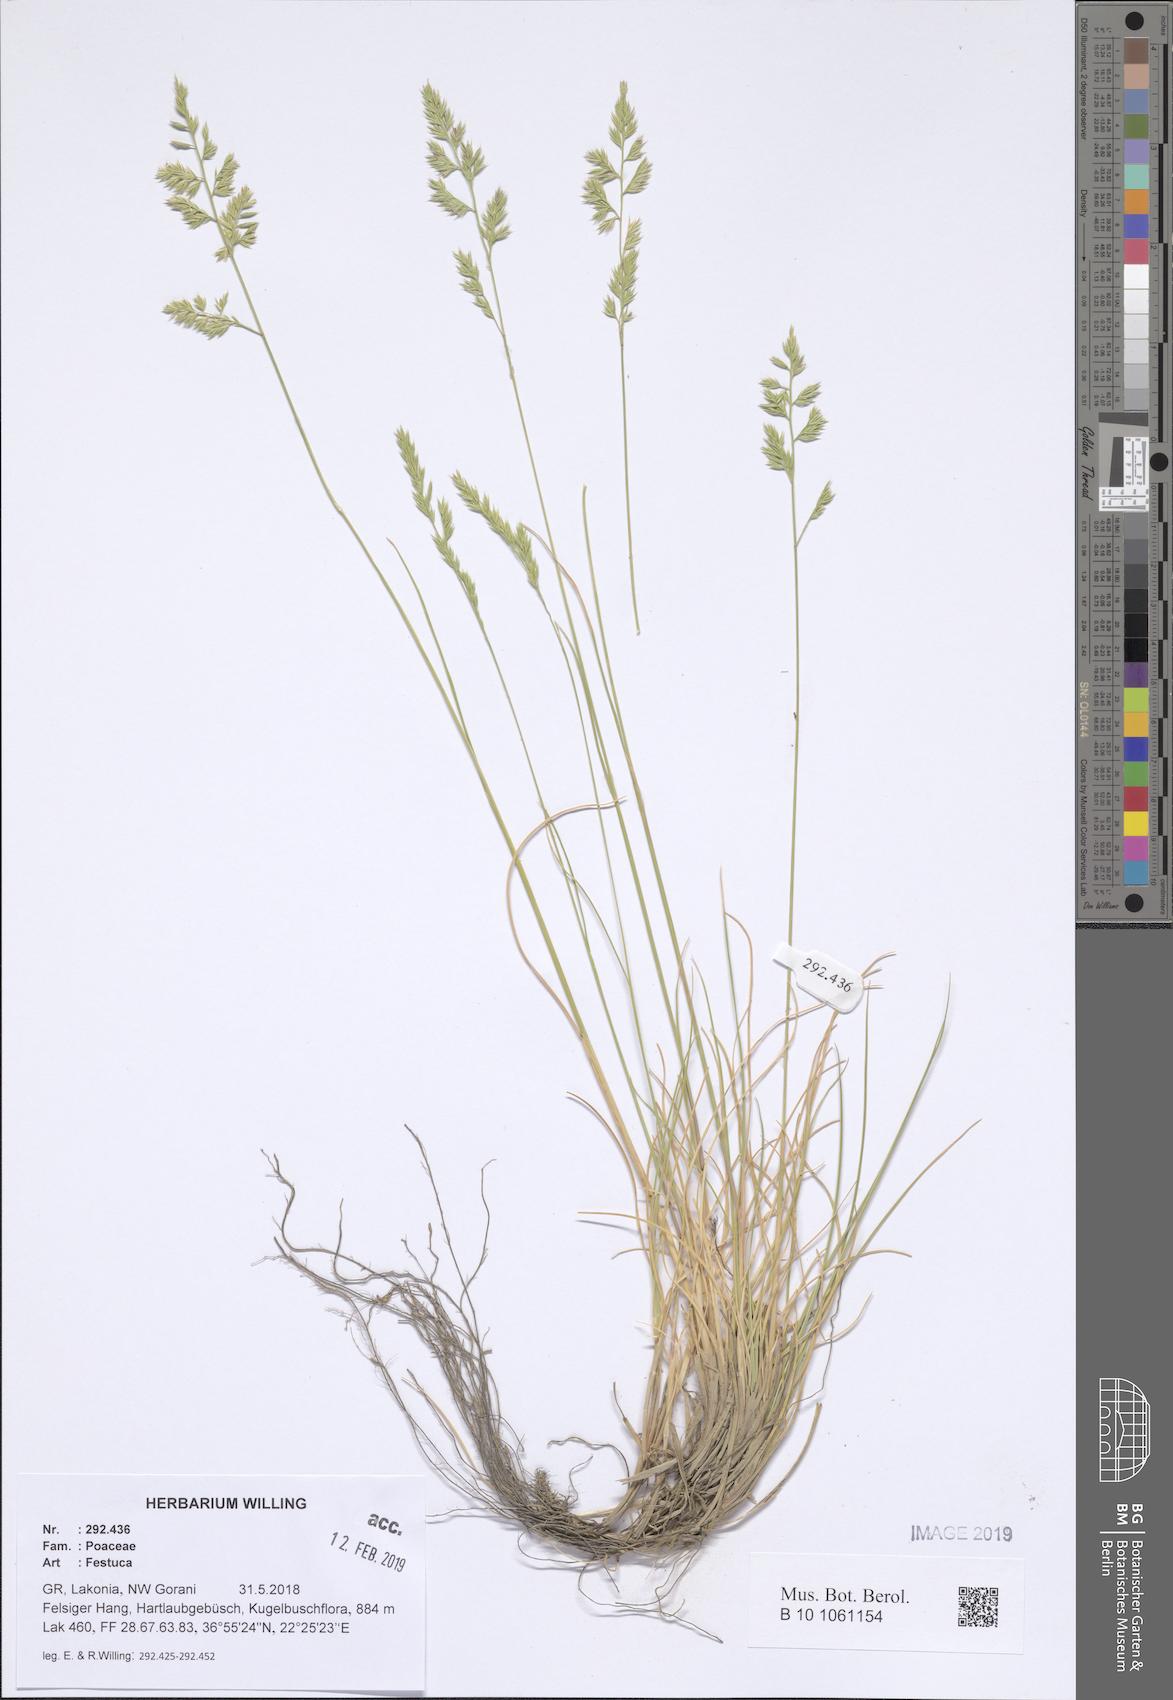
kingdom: Plantae
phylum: Tracheophyta
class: Liliopsida
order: Poales
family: Poaceae
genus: Festuca
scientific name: Festuca
